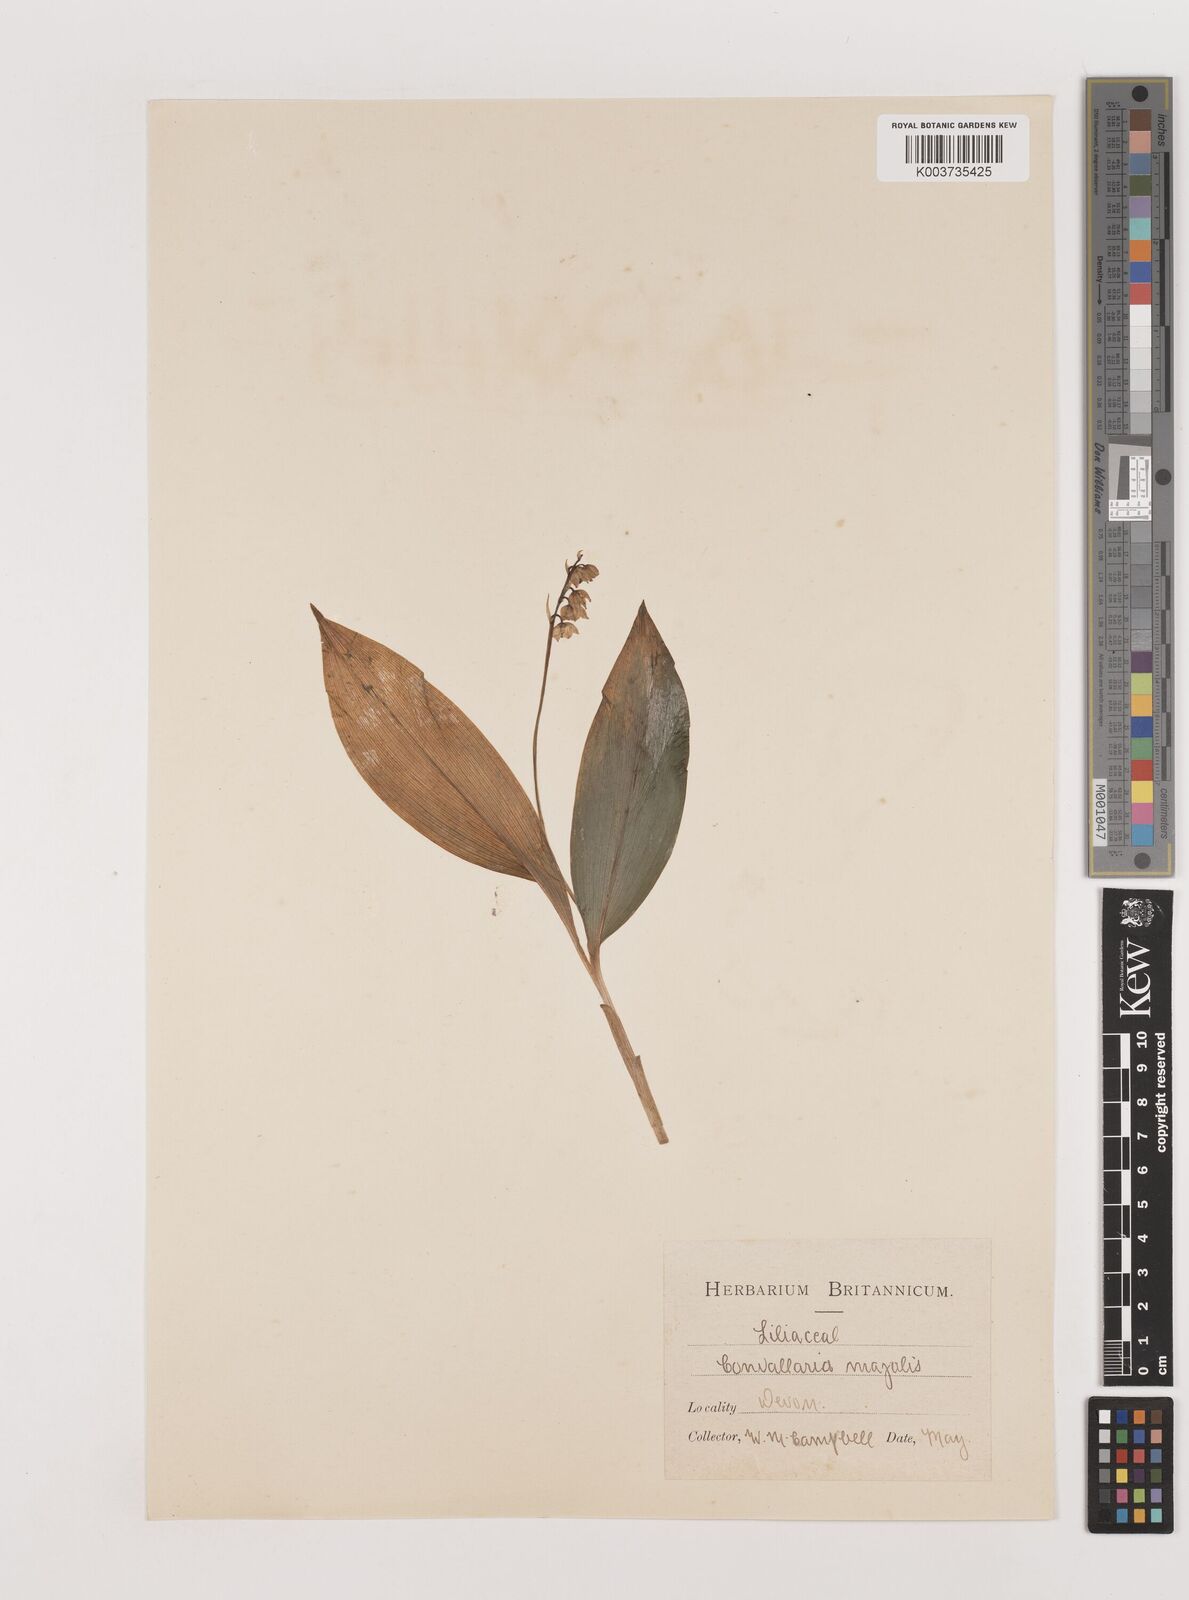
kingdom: Plantae
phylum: Tracheophyta
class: Liliopsida
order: Asparagales
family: Asparagaceae
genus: Convallaria
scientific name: Convallaria majalis
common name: Lily-of-the-valley
